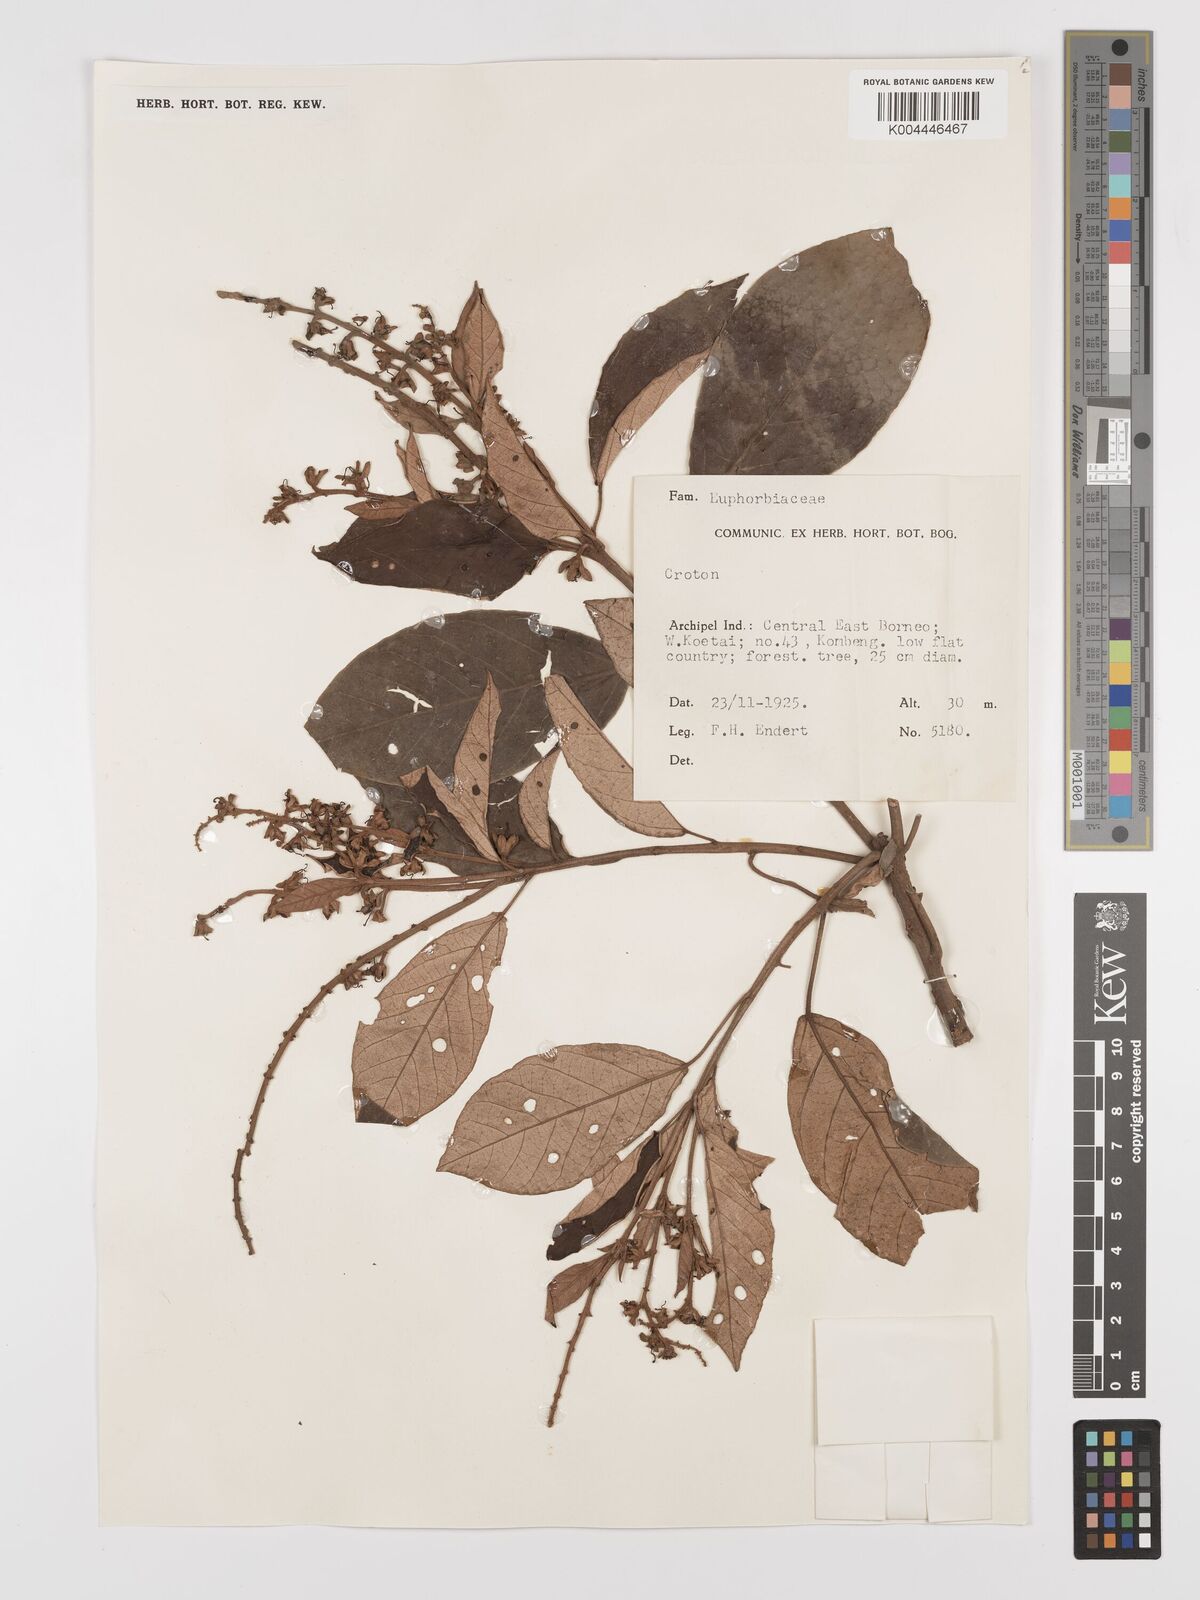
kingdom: Plantae
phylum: Tracheophyta
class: Magnoliopsida
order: Malpighiales
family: Euphorbiaceae
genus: Croton
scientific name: Croton argyratus
